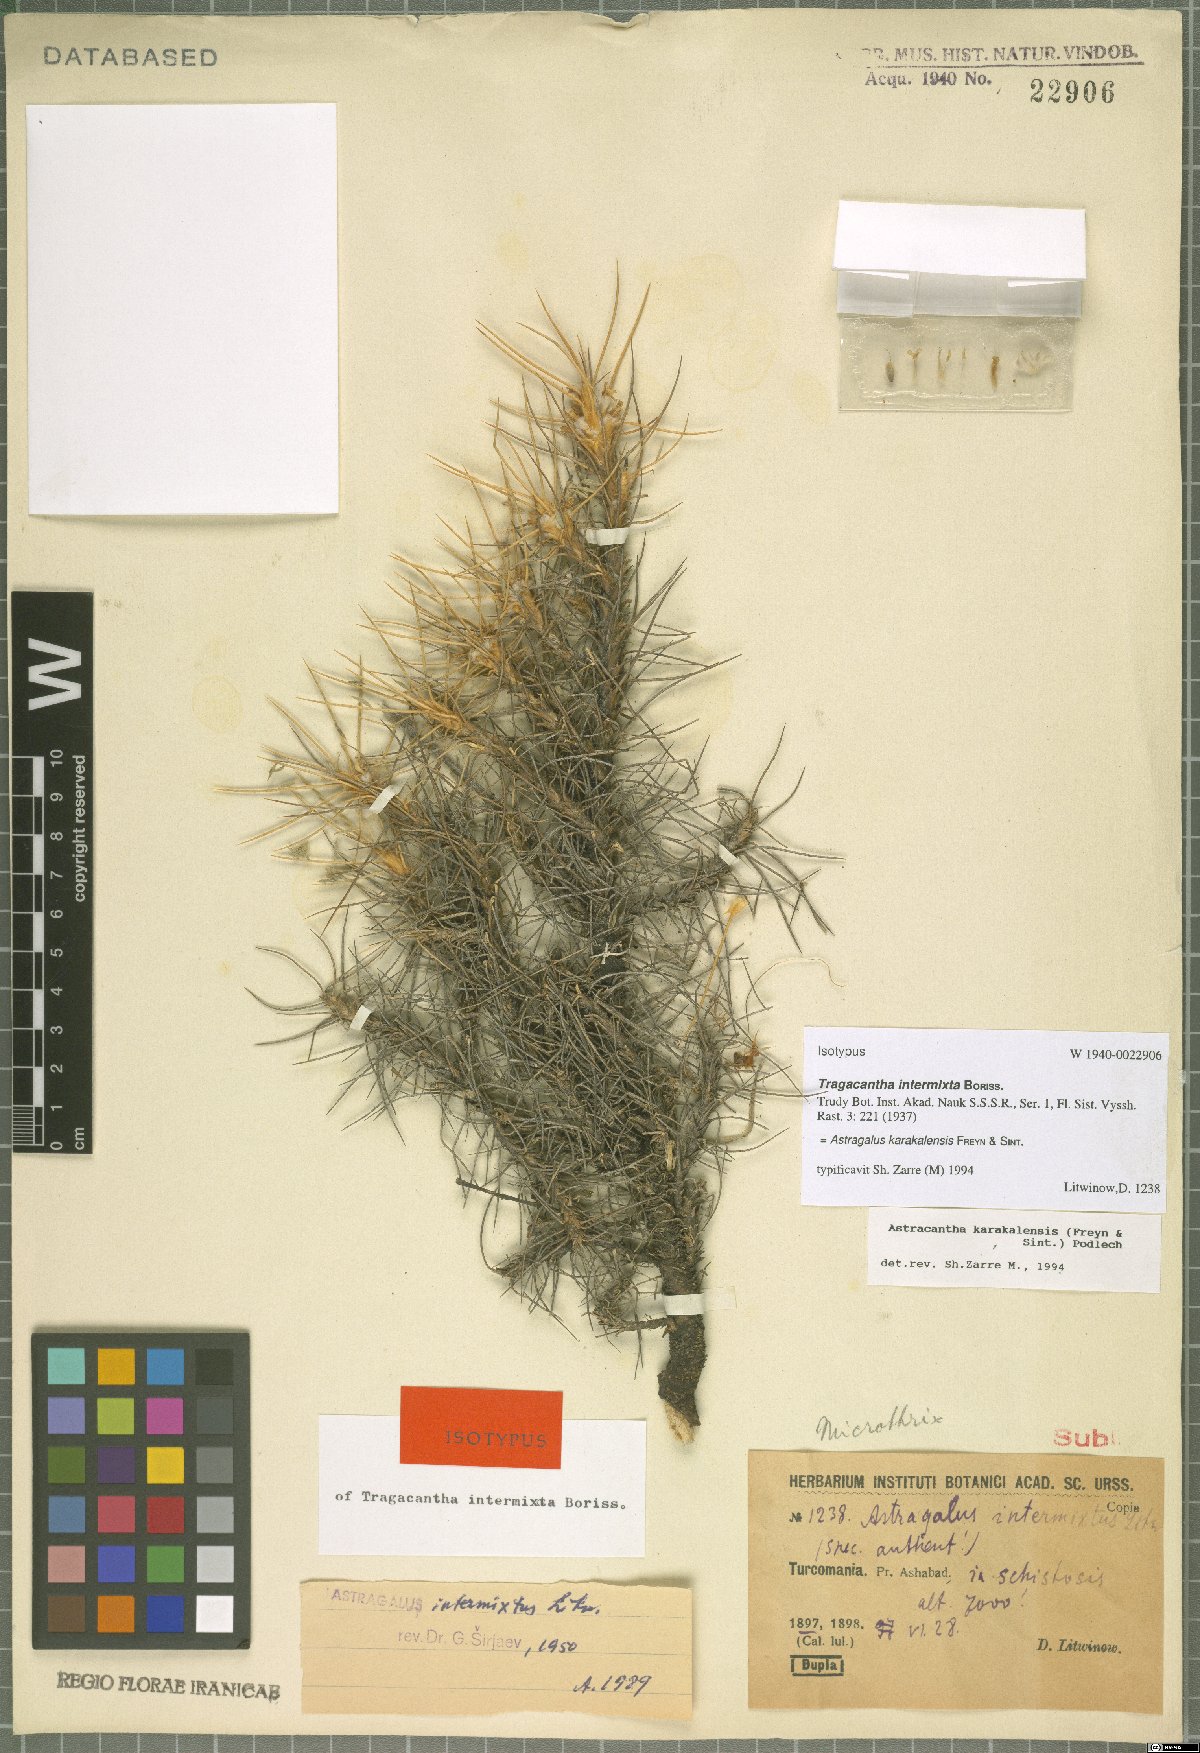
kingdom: Plantae
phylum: Tracheophyta
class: Magnoliopsida
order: Fabales
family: Fabaceae
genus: Astragalus
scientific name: Astragalus karakalensis
